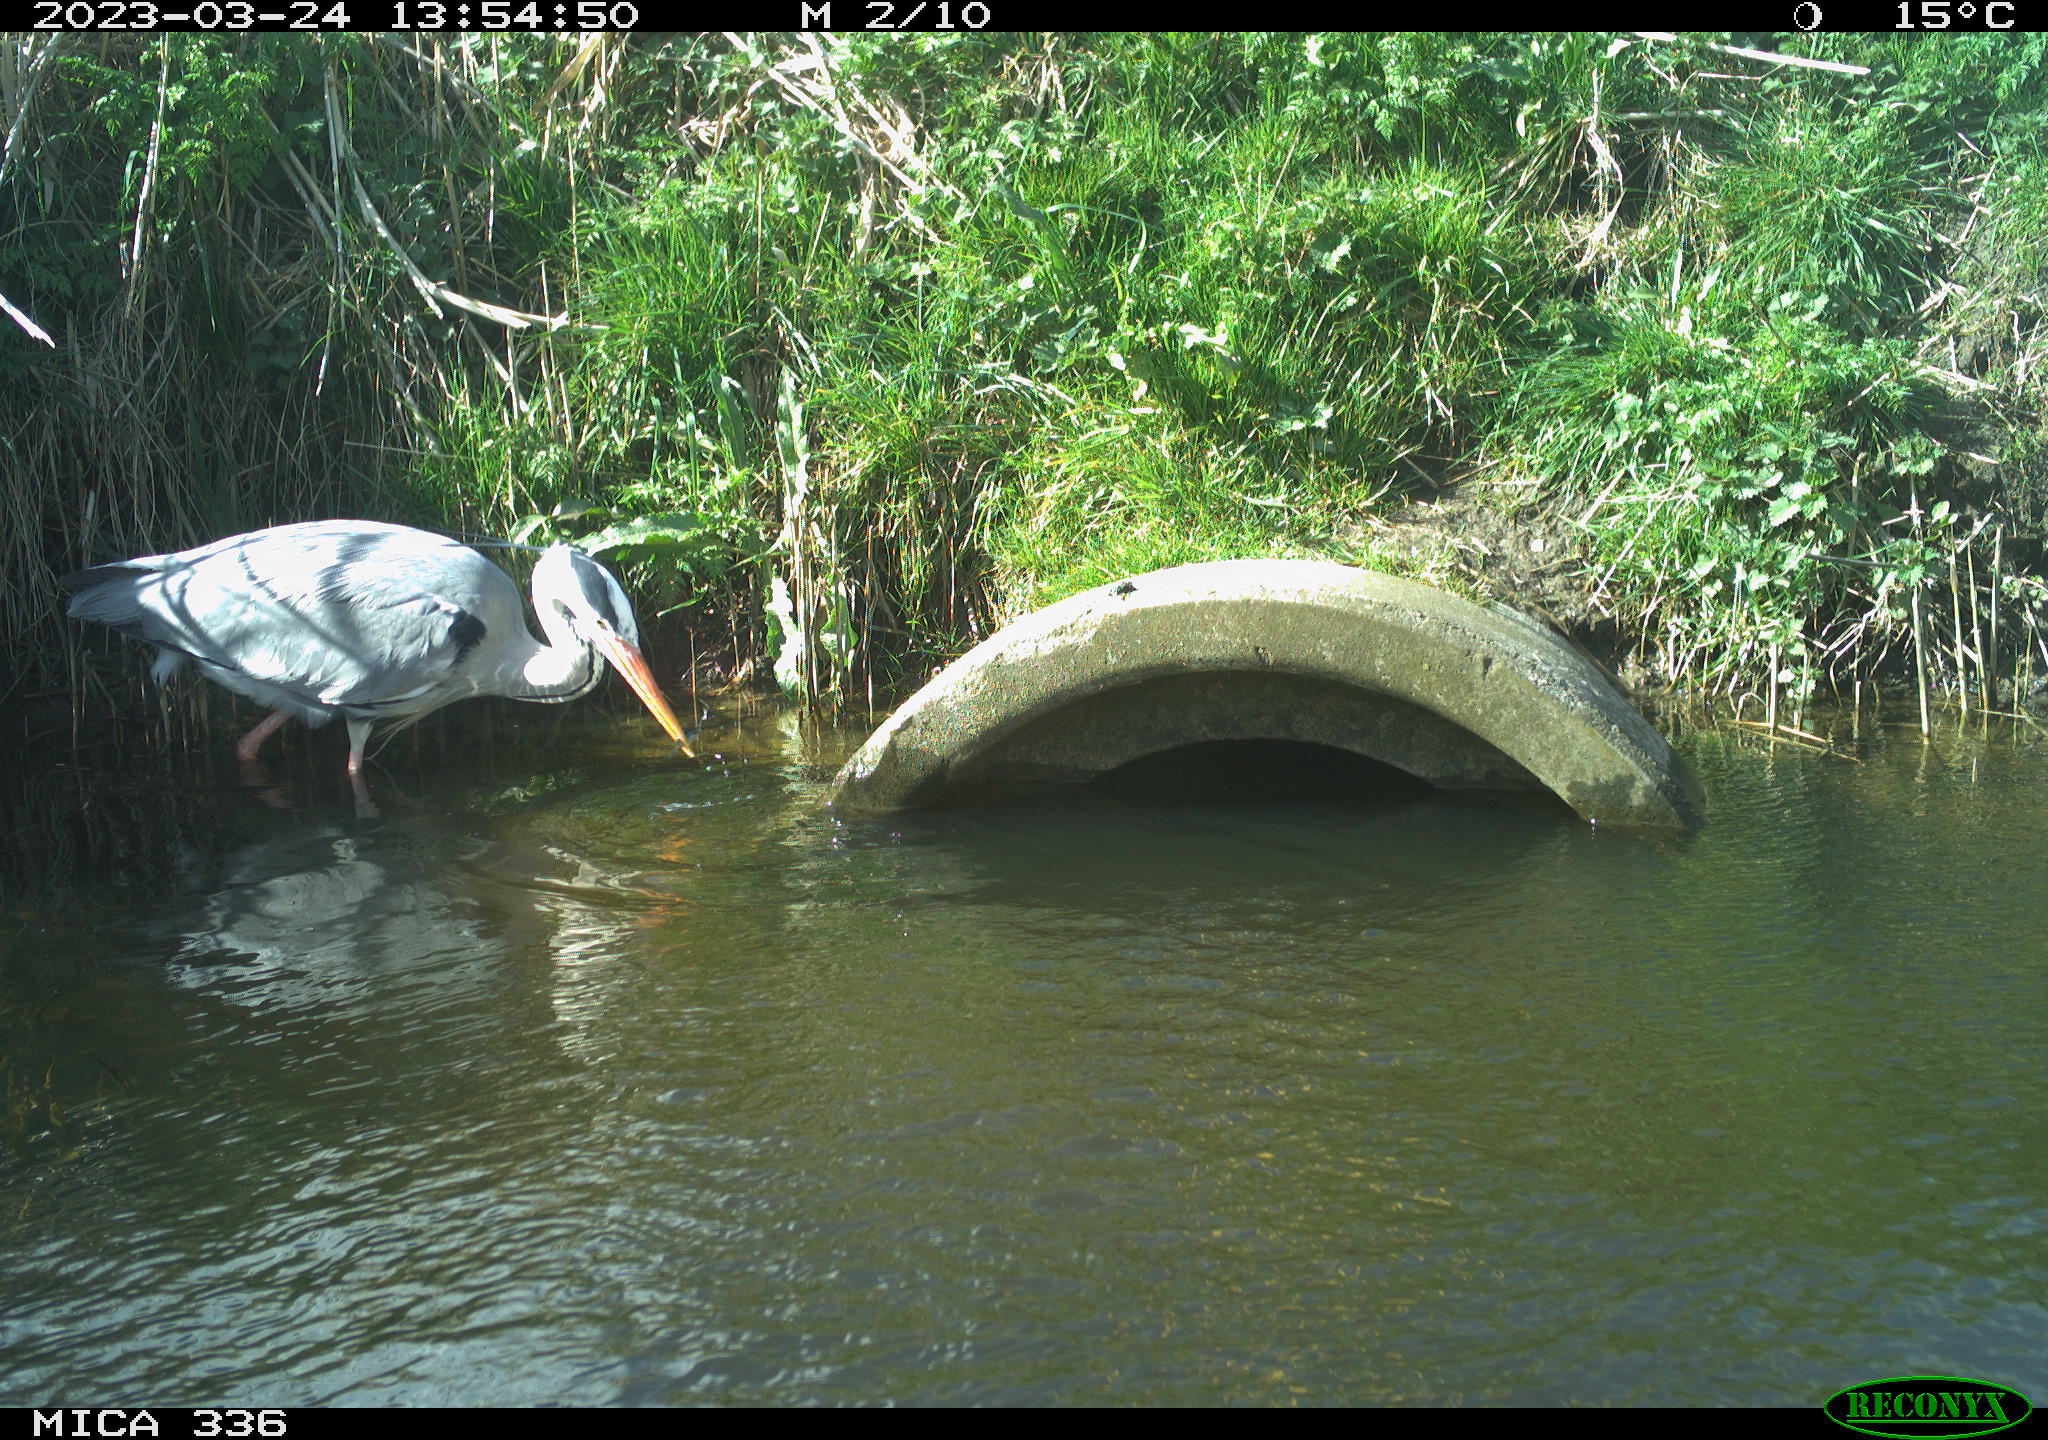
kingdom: Animalia
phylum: Chordata
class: Aves
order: Pelecaniformes
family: Ardeidae
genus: Ardea
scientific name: Ardea
